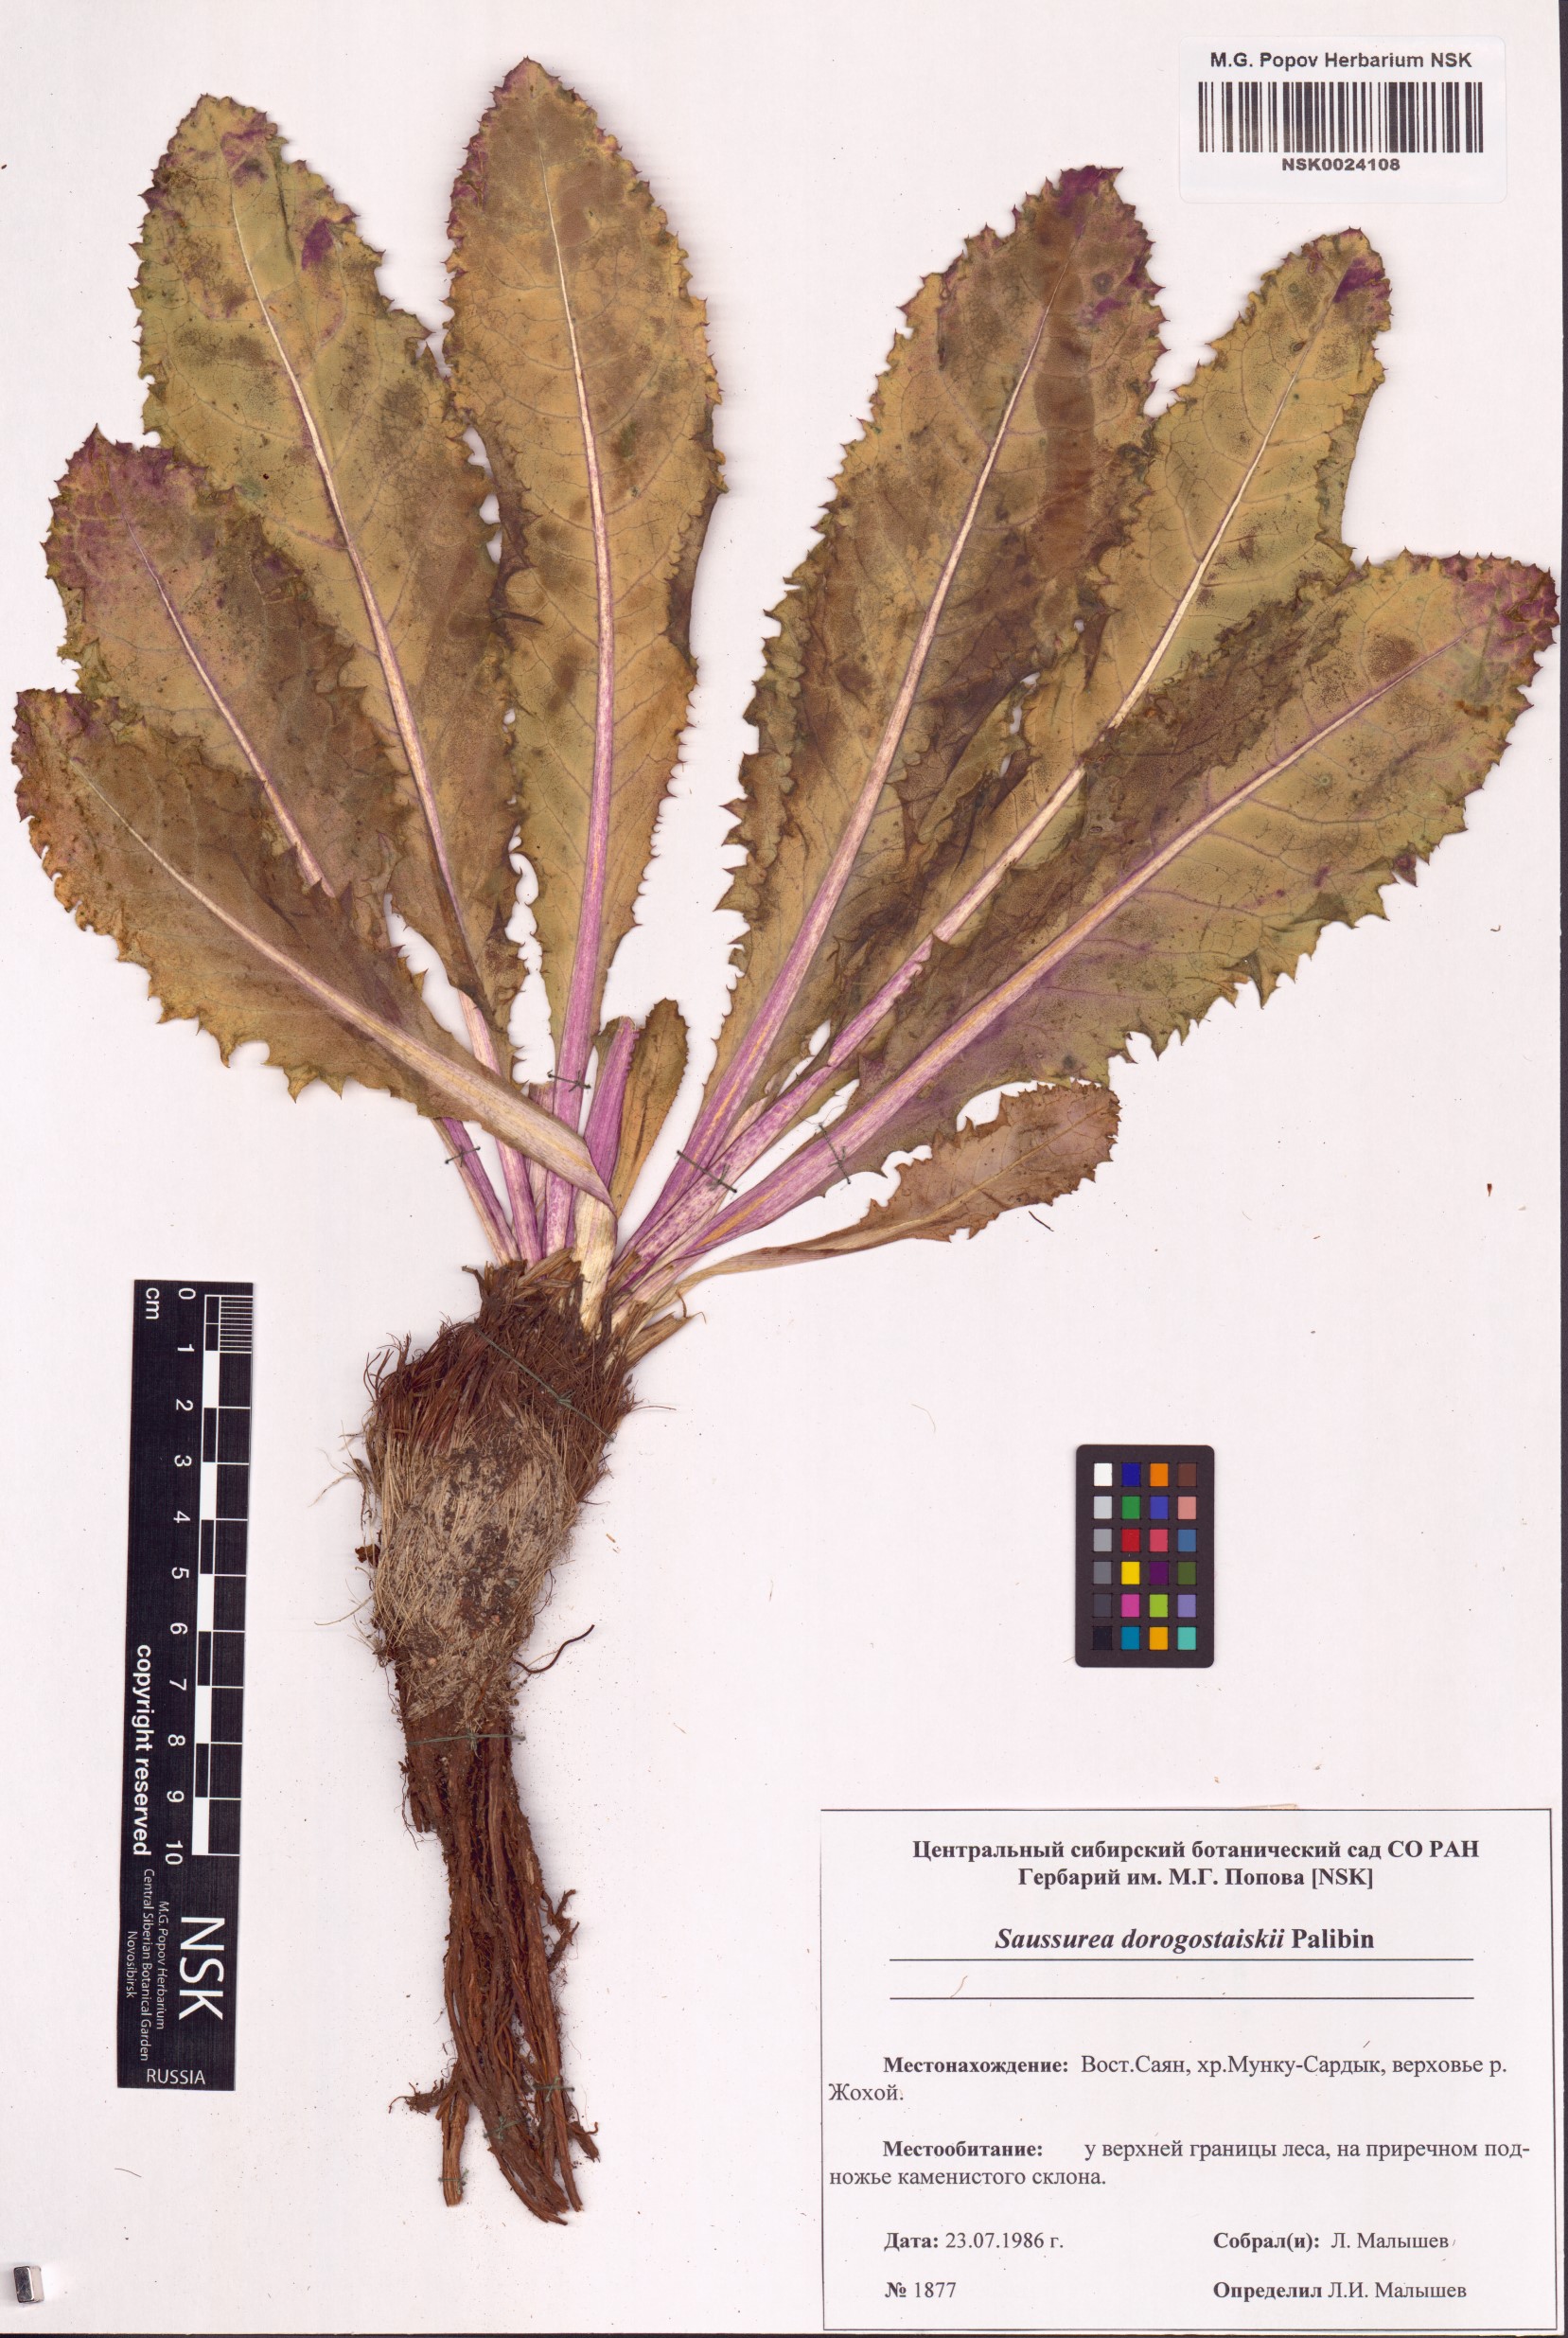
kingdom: Plantae
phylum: Tracheophyta
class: Magnoliopsida
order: Asterales
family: Asteraceae
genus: Saussurea
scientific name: Saussurea involucrata
